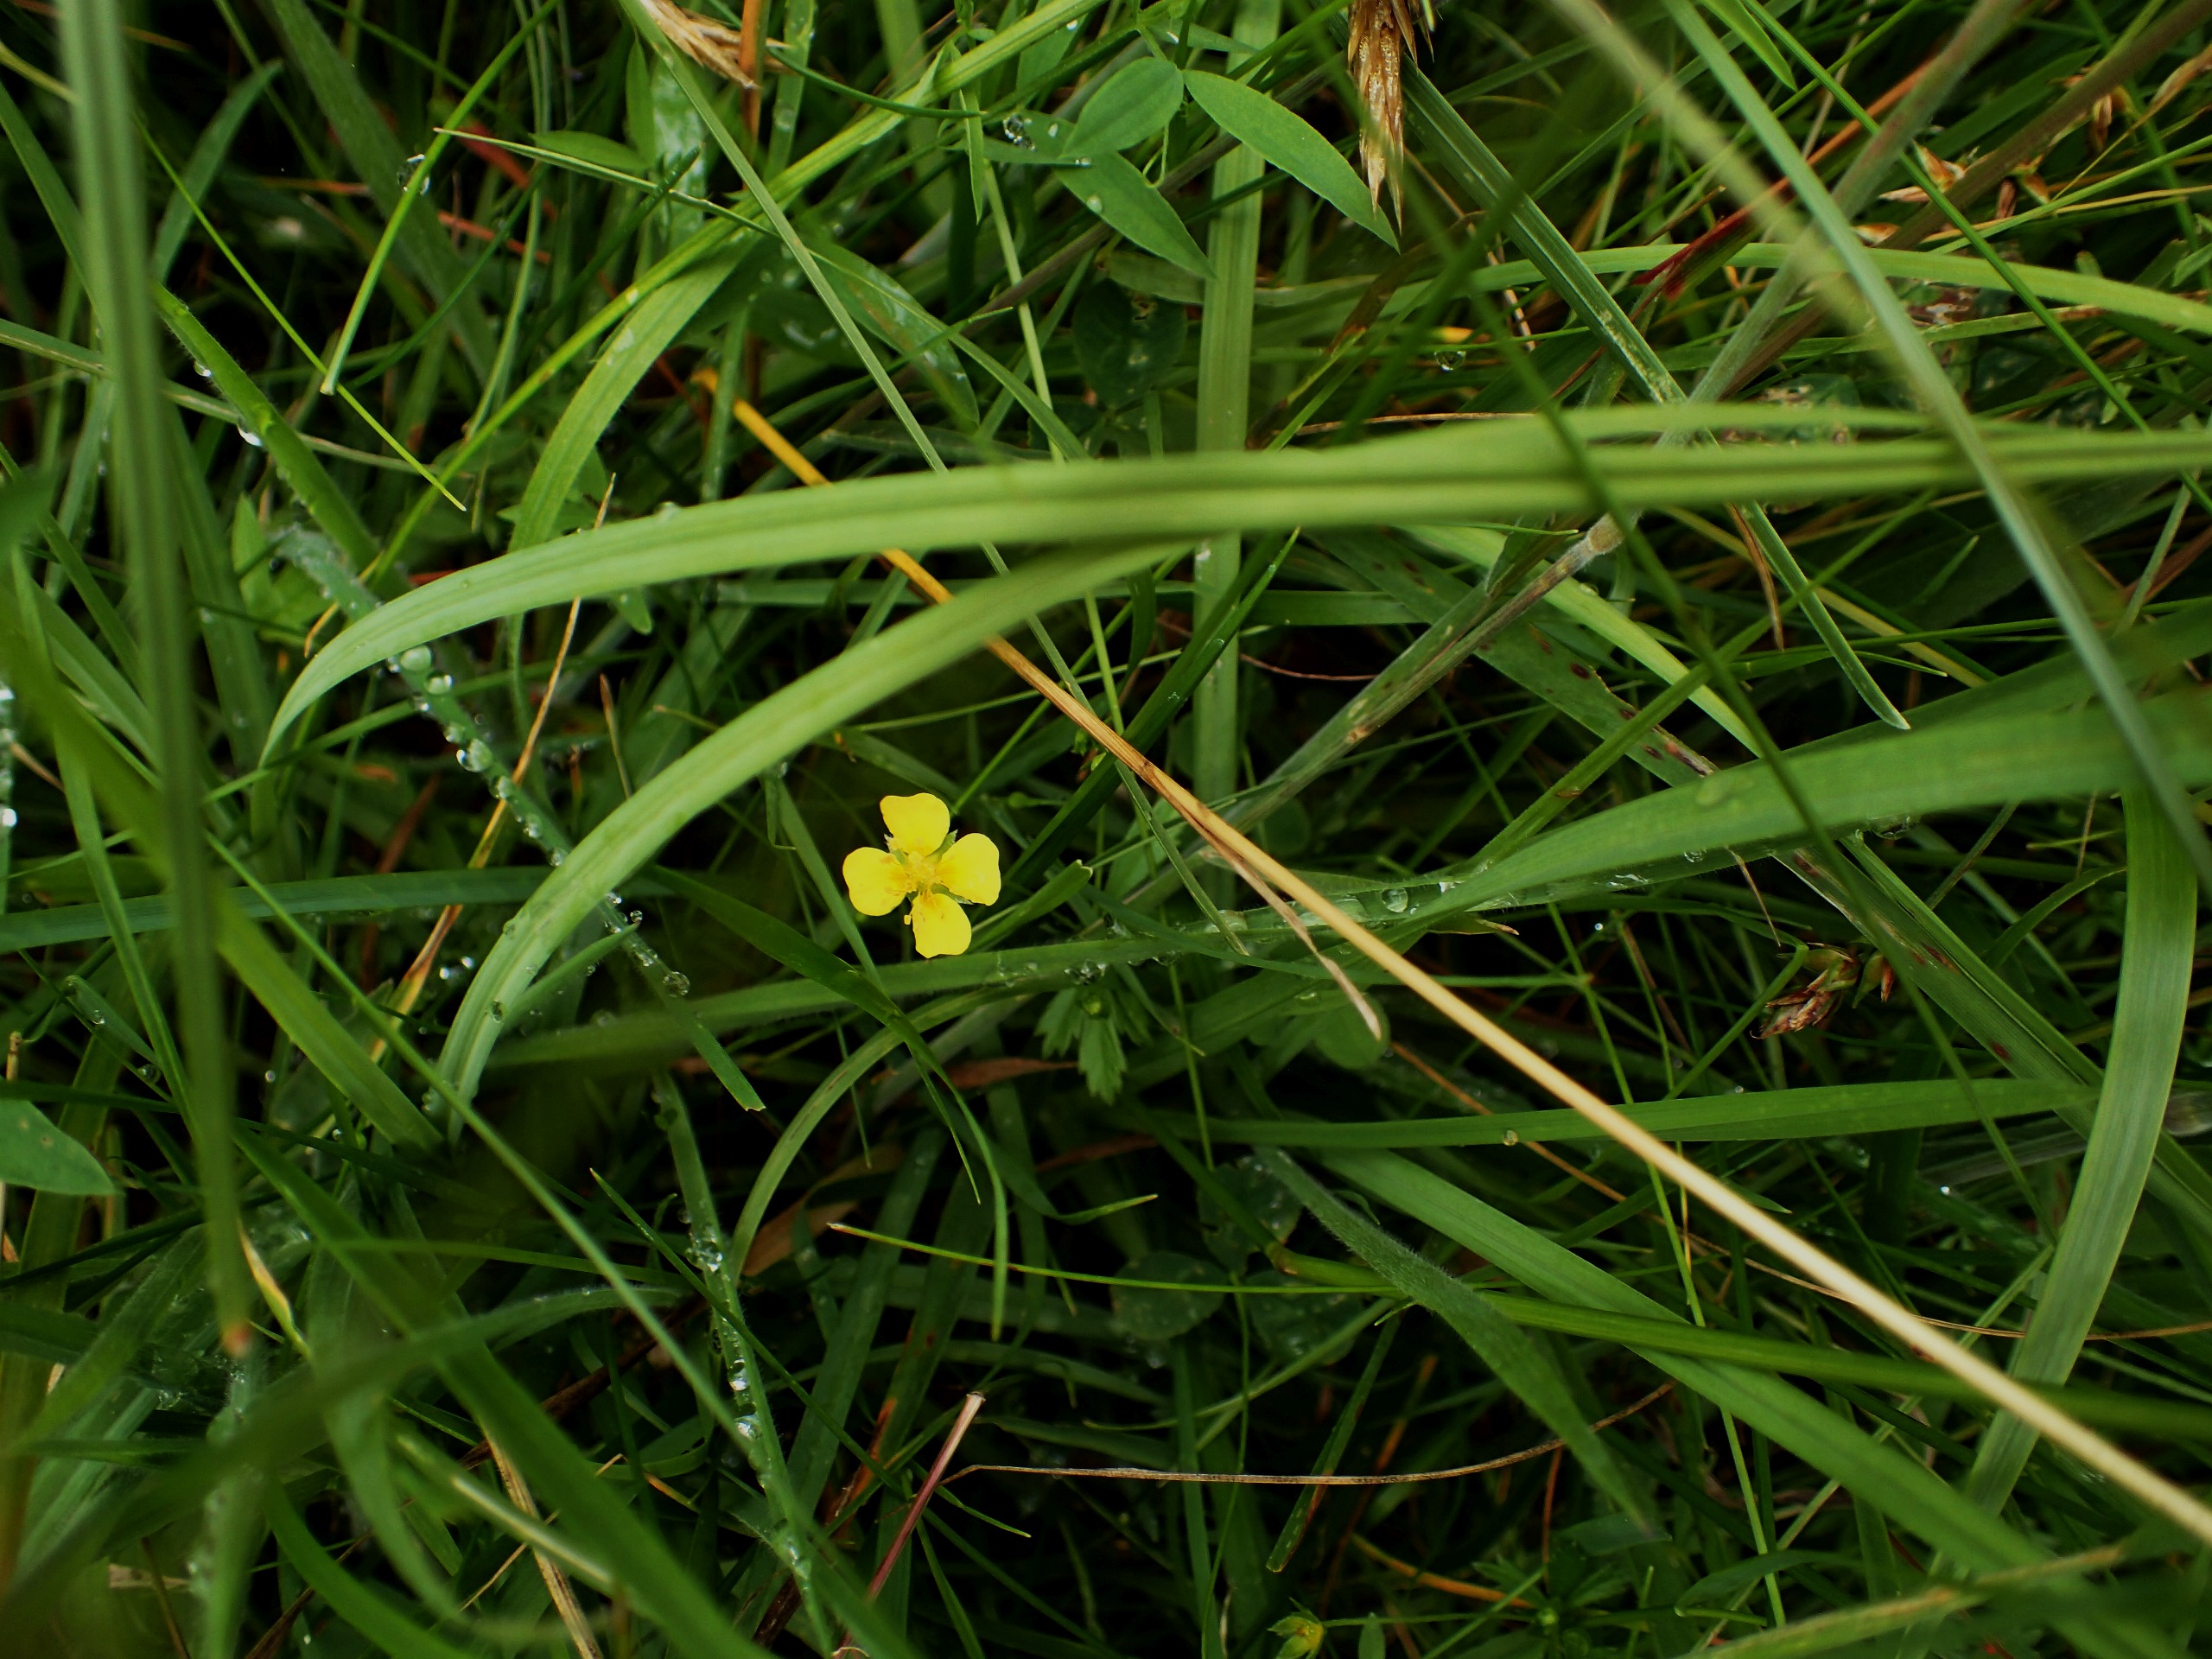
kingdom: Plantae
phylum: Tracheophyta
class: Magnoliopsida
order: Rosales
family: Rosaceae
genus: Potentilla
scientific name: Potentilla erecta
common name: Tormentil
